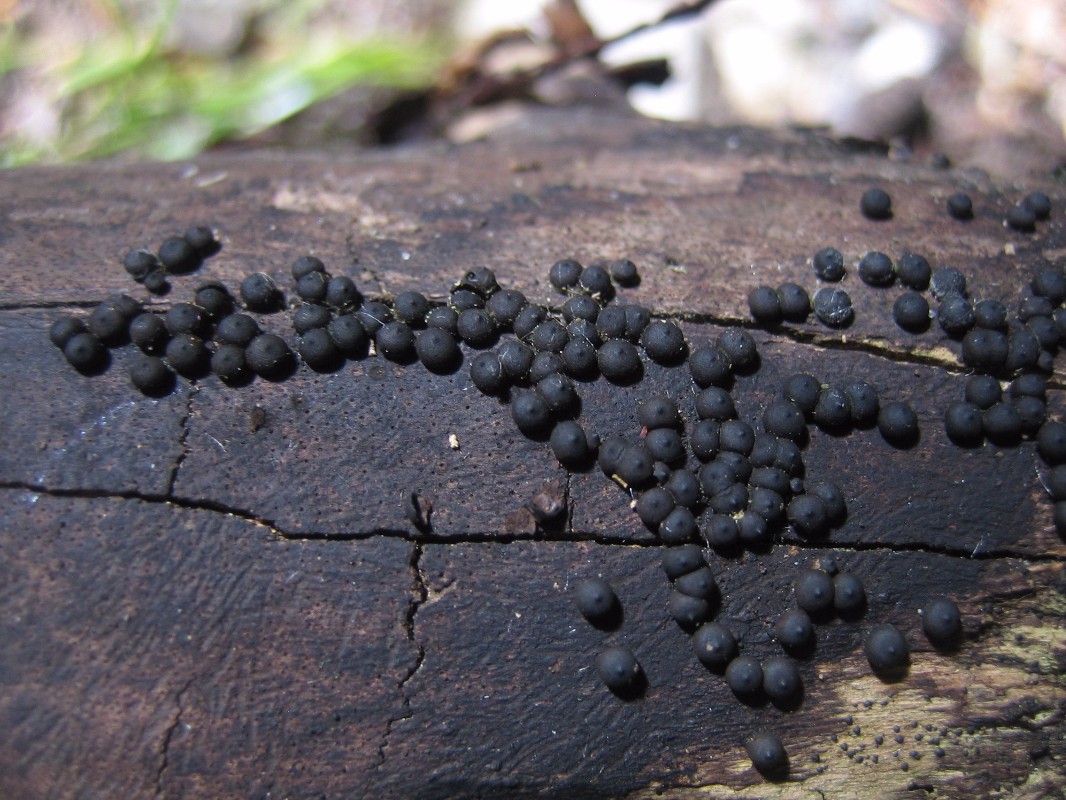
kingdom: Fungi
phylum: Ascomycota
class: Sordariomycetes
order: Xylariales
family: Xylariaceae
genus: Rosellinia
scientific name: Rosellinia
